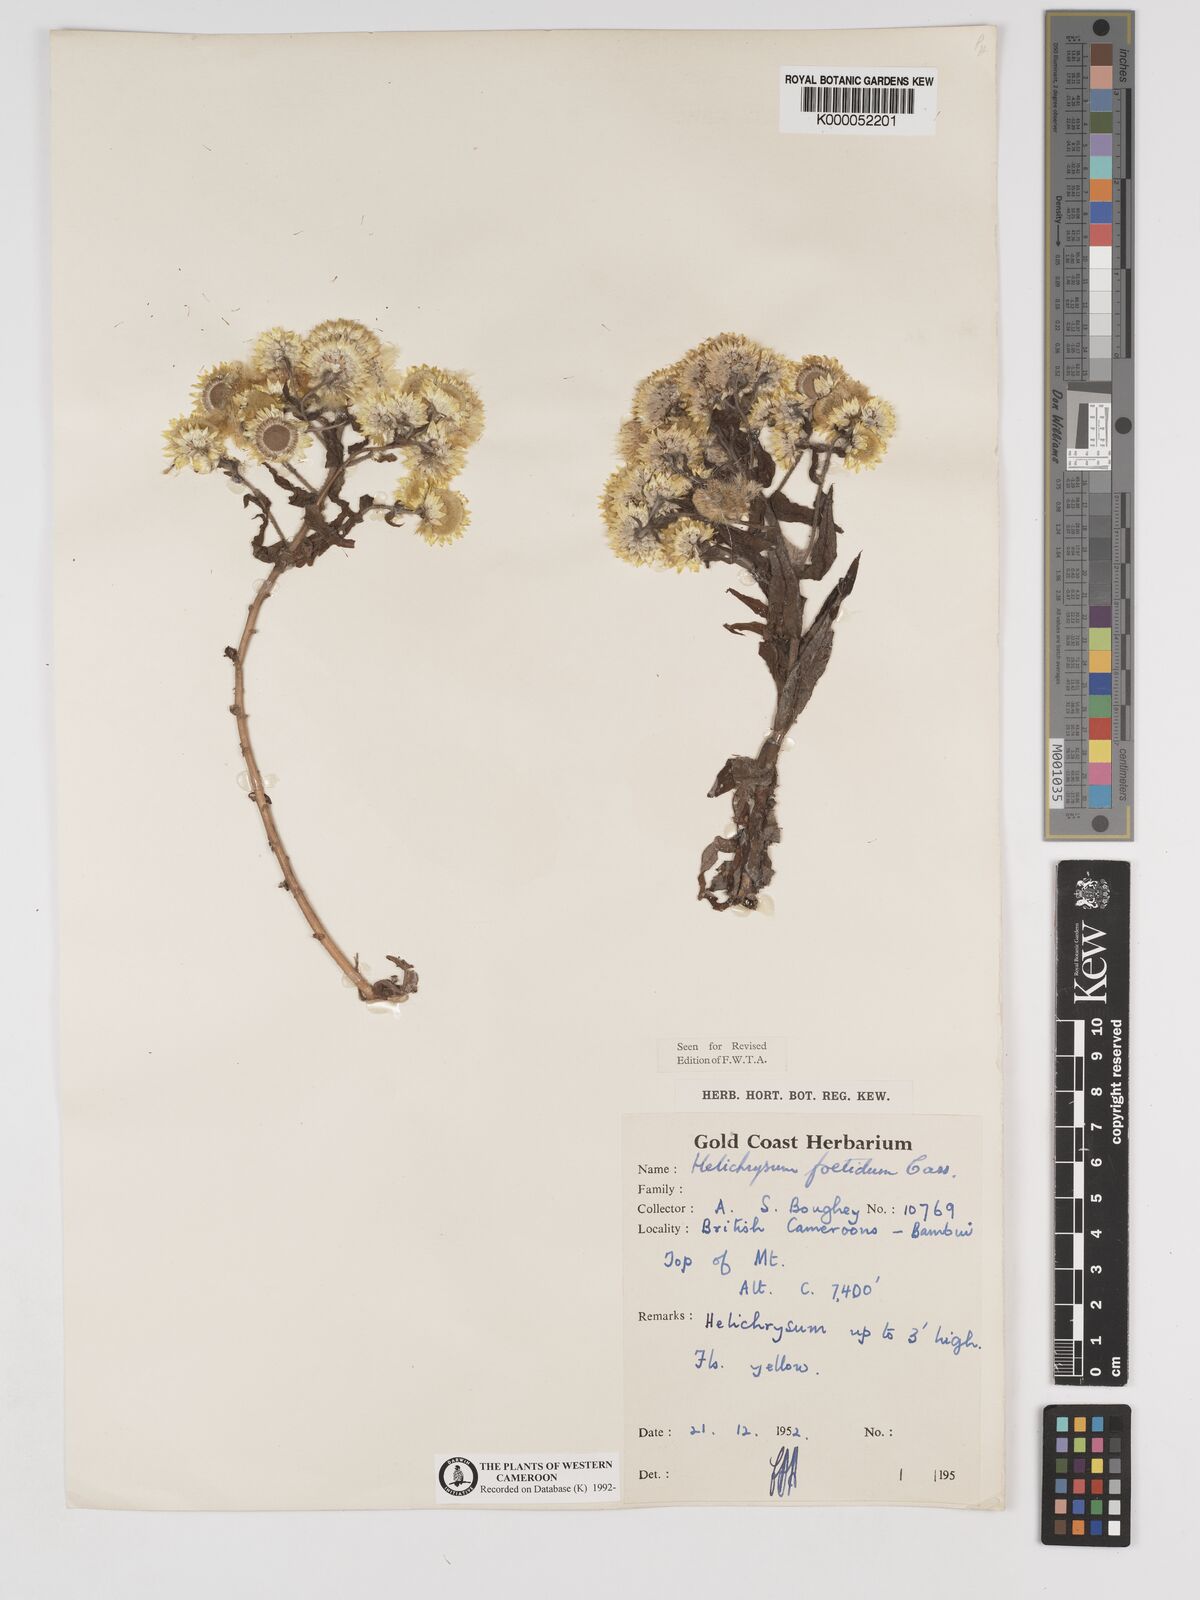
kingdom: Plantae
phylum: Tracheophyta
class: Magnoliopsida
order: Asterales
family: Asteraceae
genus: Helichrysum
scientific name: Helichrysum foetidum
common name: Stinking everlasting
